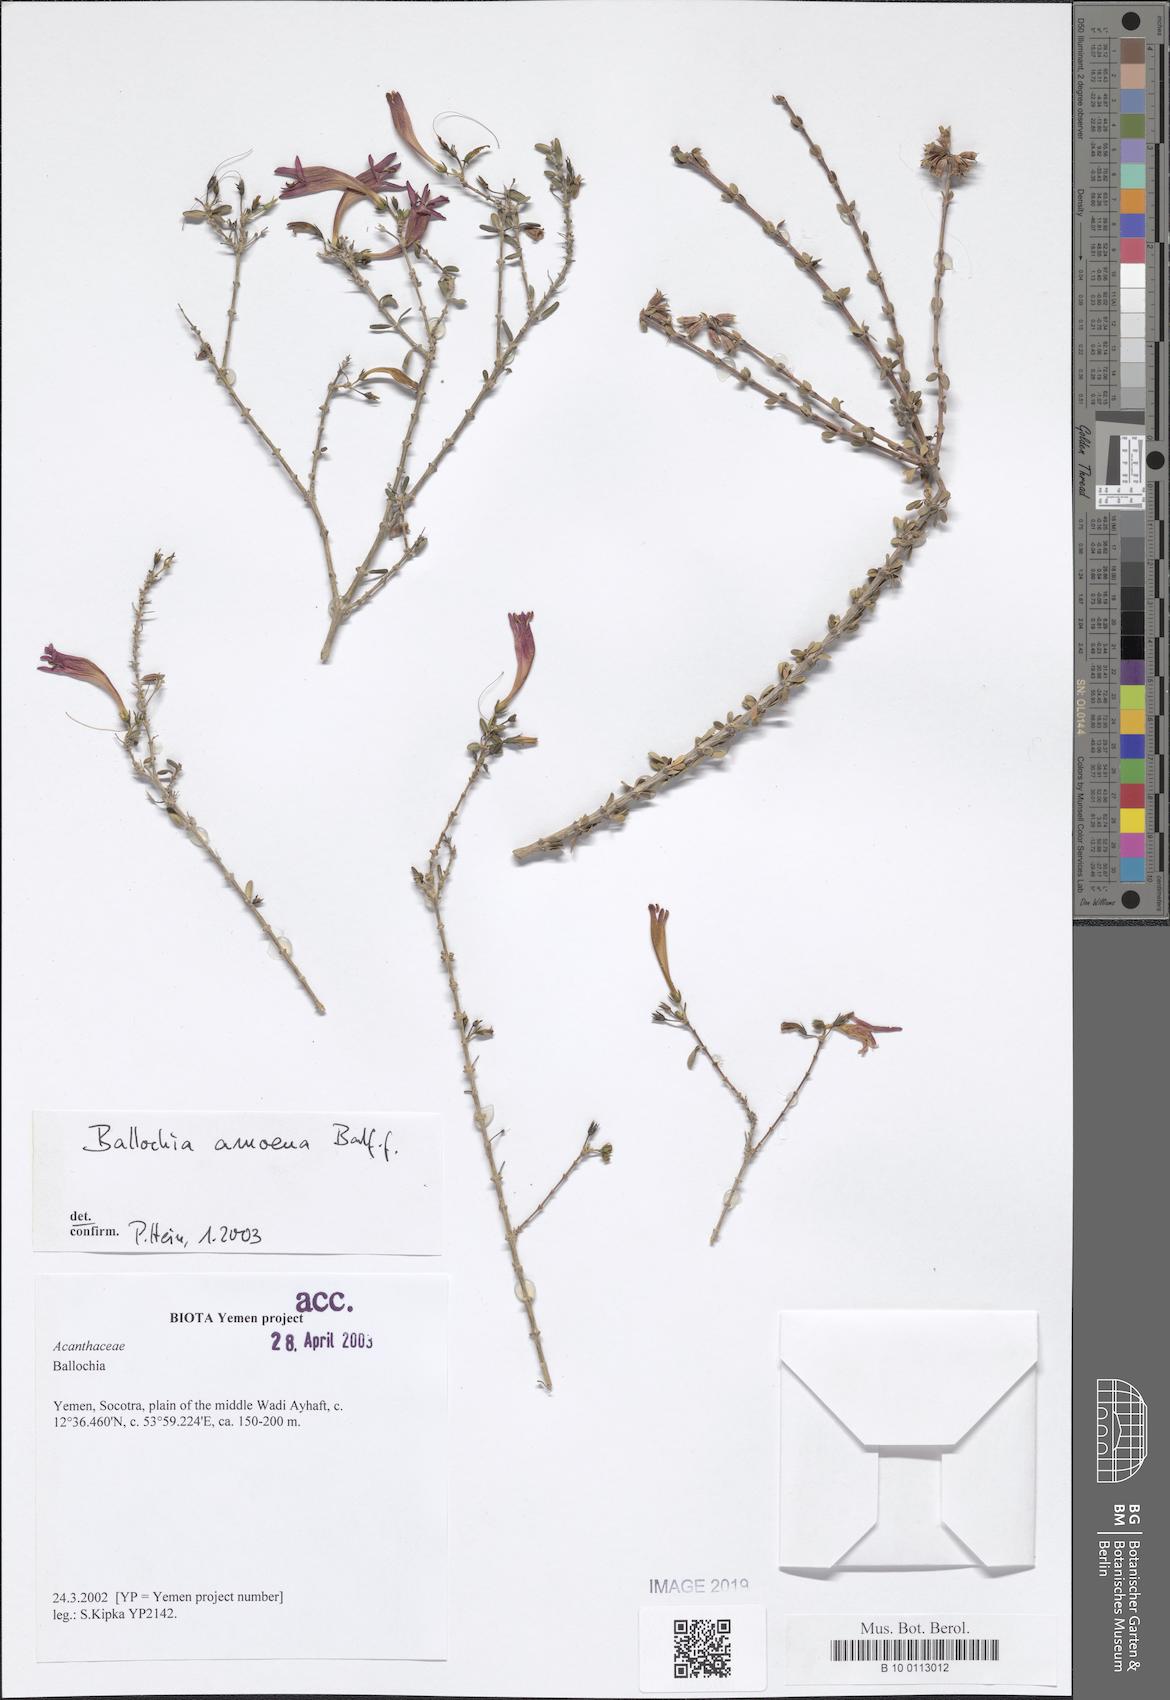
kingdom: Plantae
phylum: Tracheophyta
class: Magnoliopsida
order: Lamiales
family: Acanthaceae
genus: Ballochia
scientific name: Ballochia amoena
